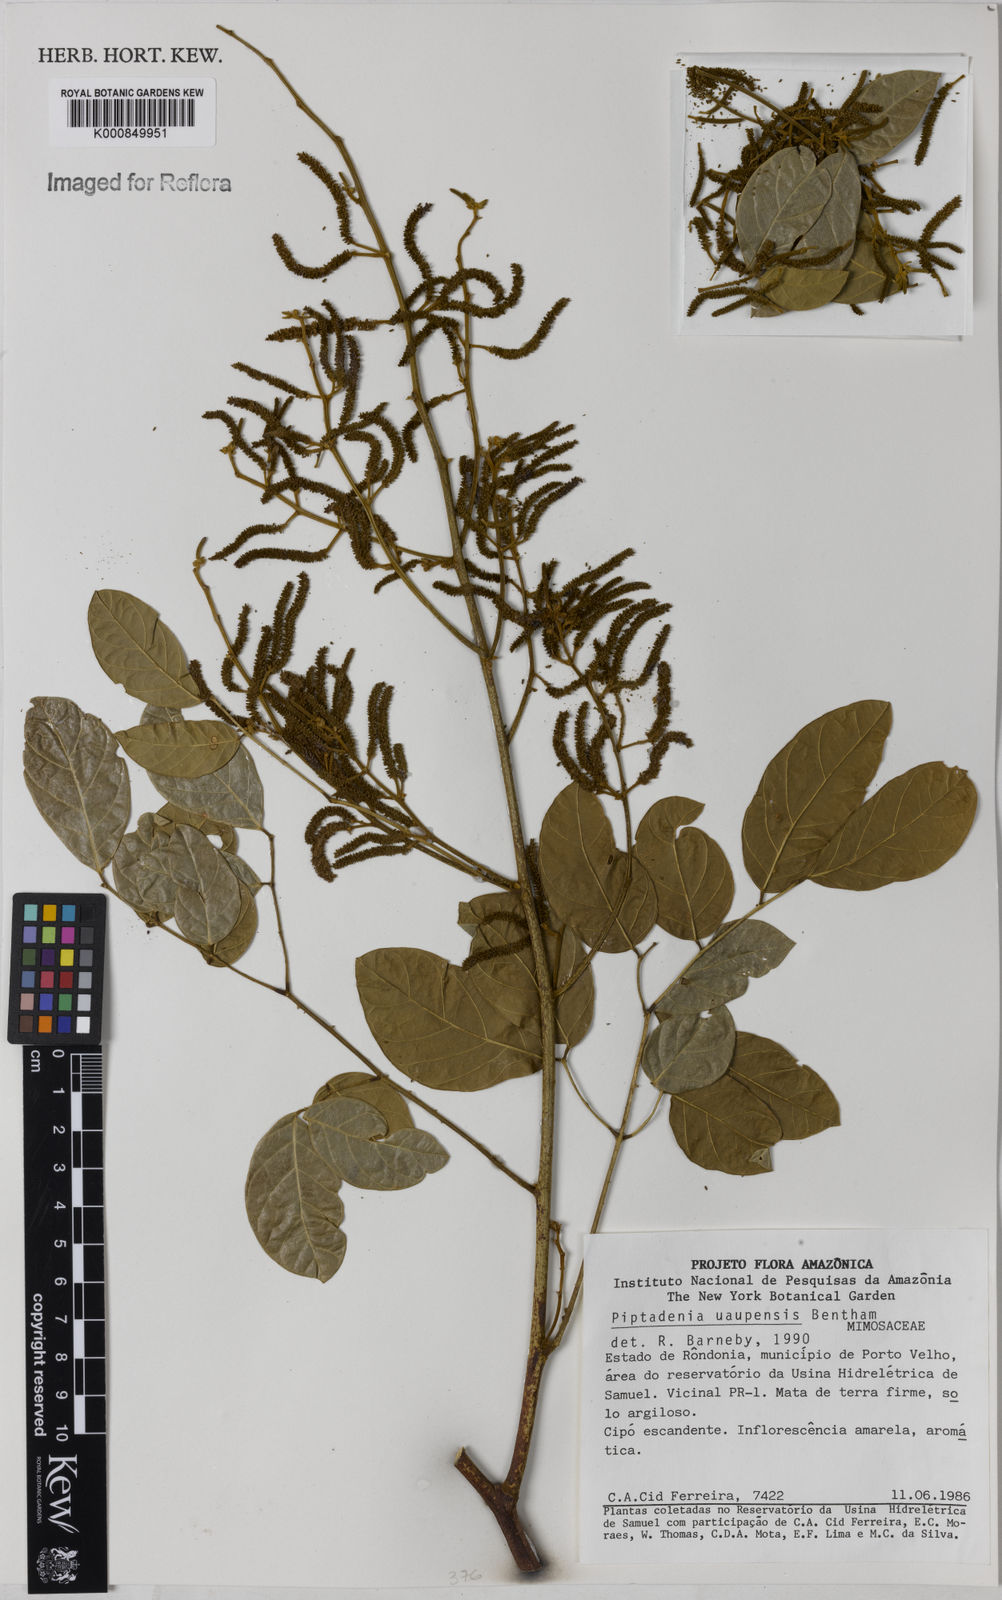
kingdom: Plantae
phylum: Tracheophyta
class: Magnoliopsida
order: Fabales
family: Fabaceae
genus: Piptadenia
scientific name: Piptadenia
